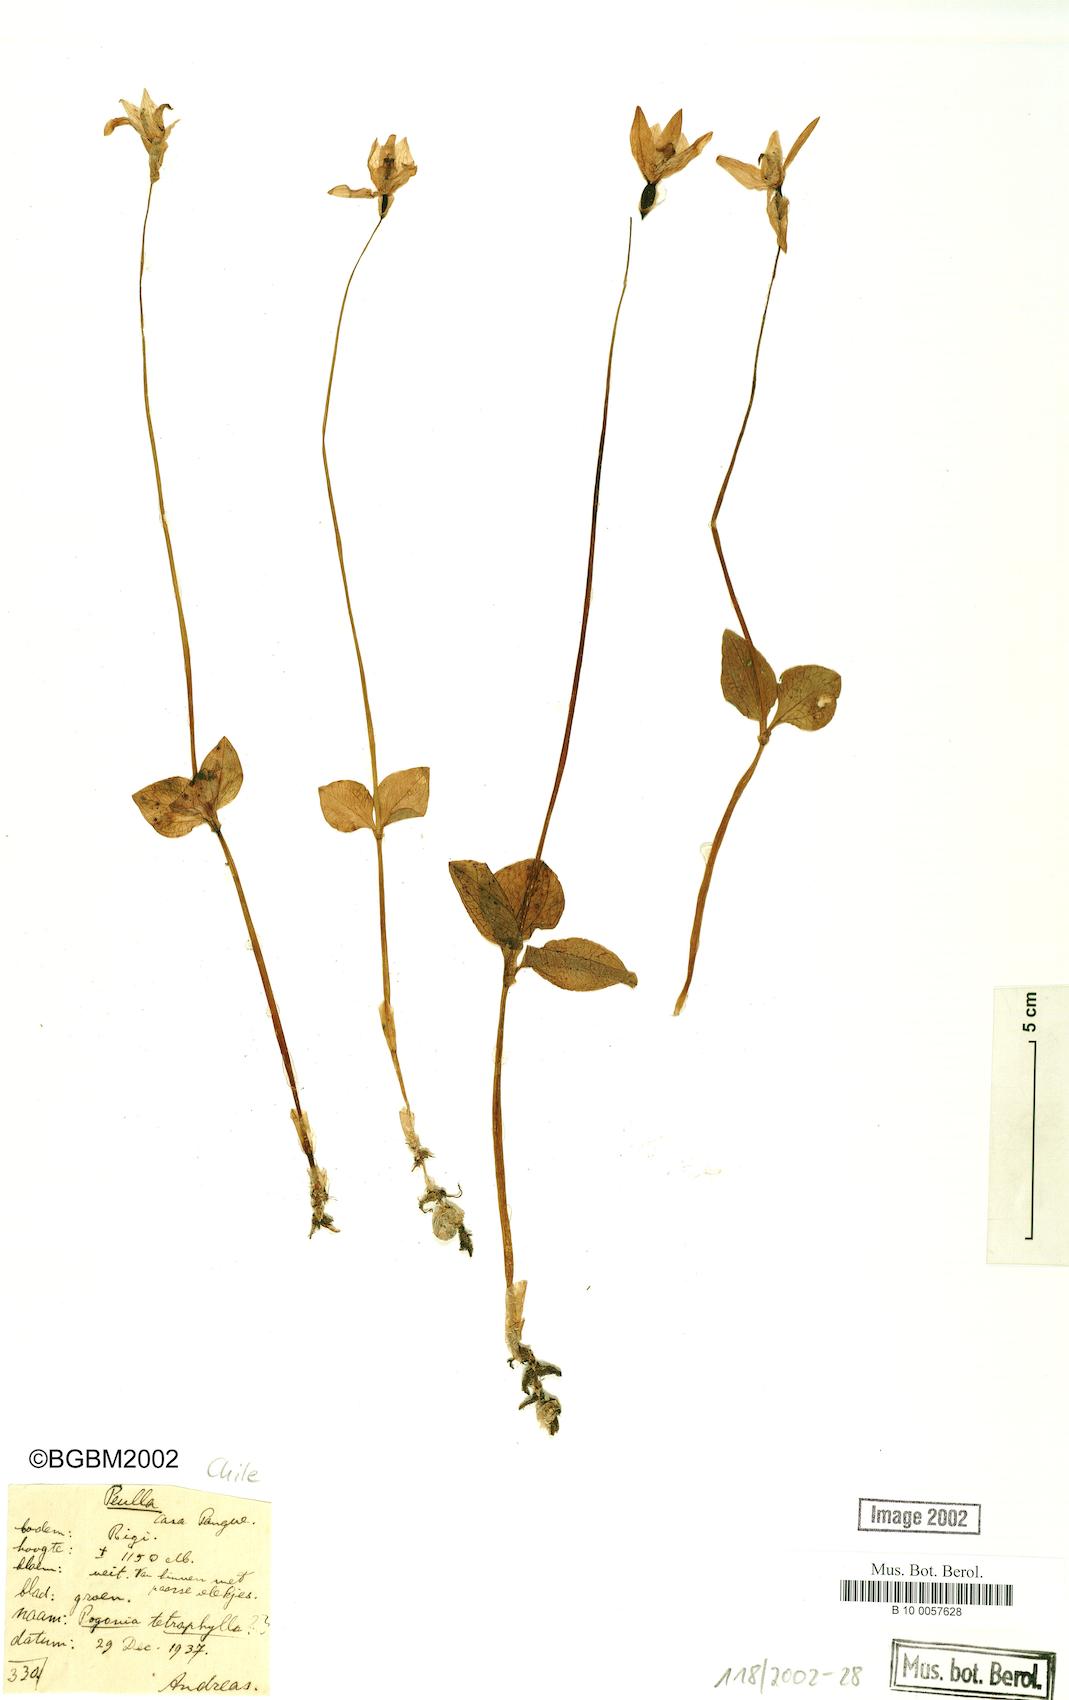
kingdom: Plantae
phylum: Tracheophyta
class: Liliopsida
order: Asparagales
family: Orchidaceae
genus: Codonorchis
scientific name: Codonorchis lessonii
